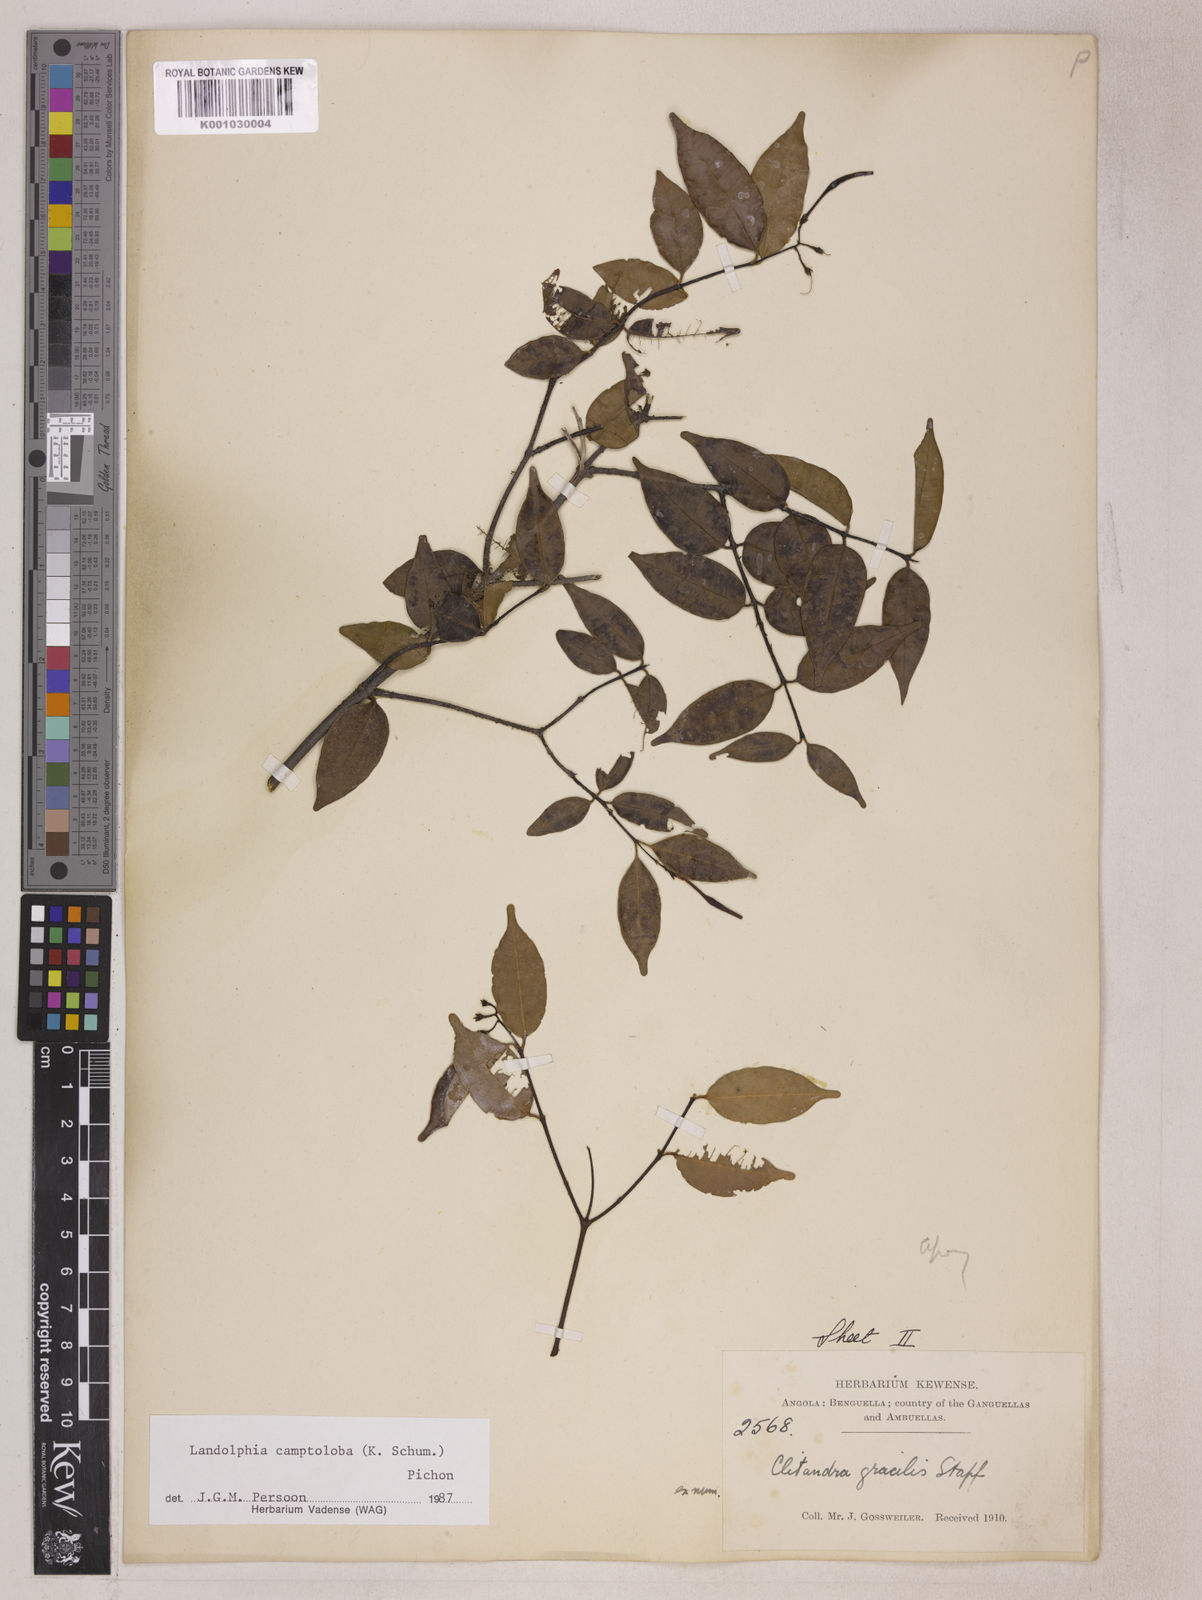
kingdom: Plantae
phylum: Tracheophyta
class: Magnoliopsida
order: Gentianales
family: Apocynaceae
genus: Landolphia
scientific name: Landolphia camptoloba
